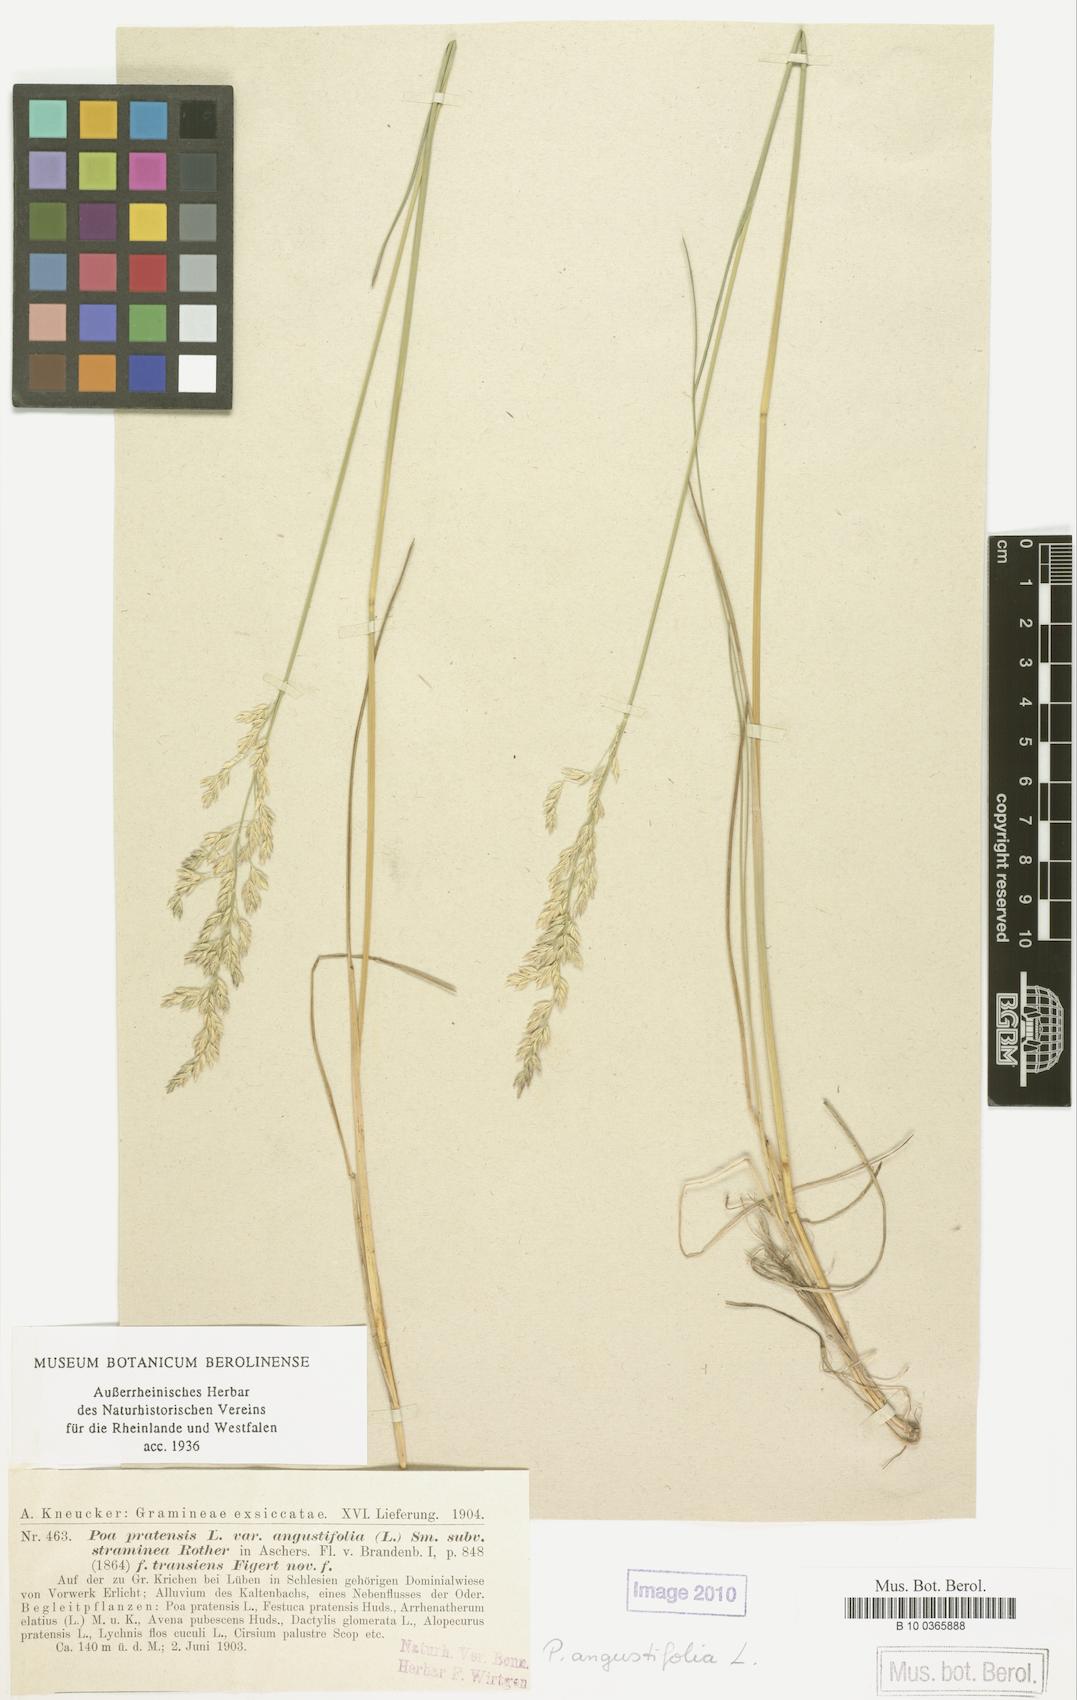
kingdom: Plantae
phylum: Tracheophyta
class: Liliopsida
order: Poales
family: Poaceae
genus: Poa
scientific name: Poa pratensis
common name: Kentucky bluegrass
